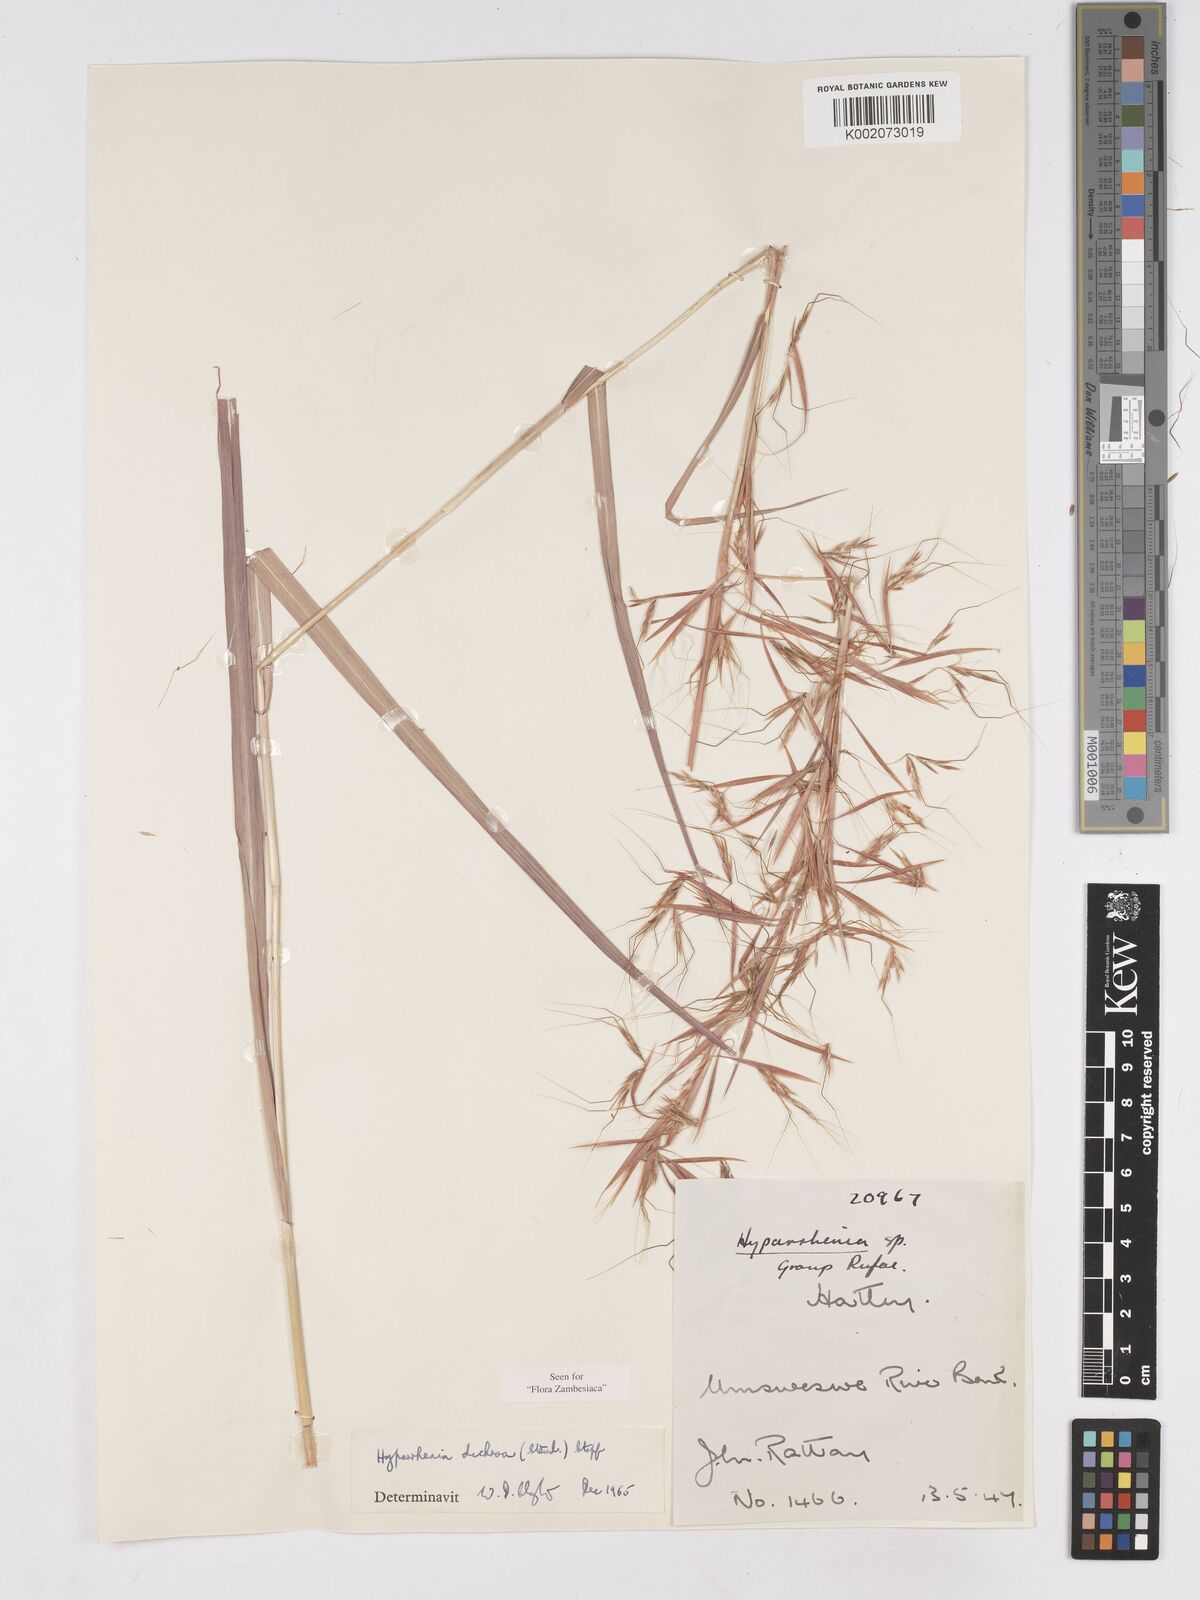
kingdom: Plantae
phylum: Tracheophyta
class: Liliopsida
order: Poales
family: Poaceae
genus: Hyparrhenia
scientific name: Hyparrhenia dichroa
